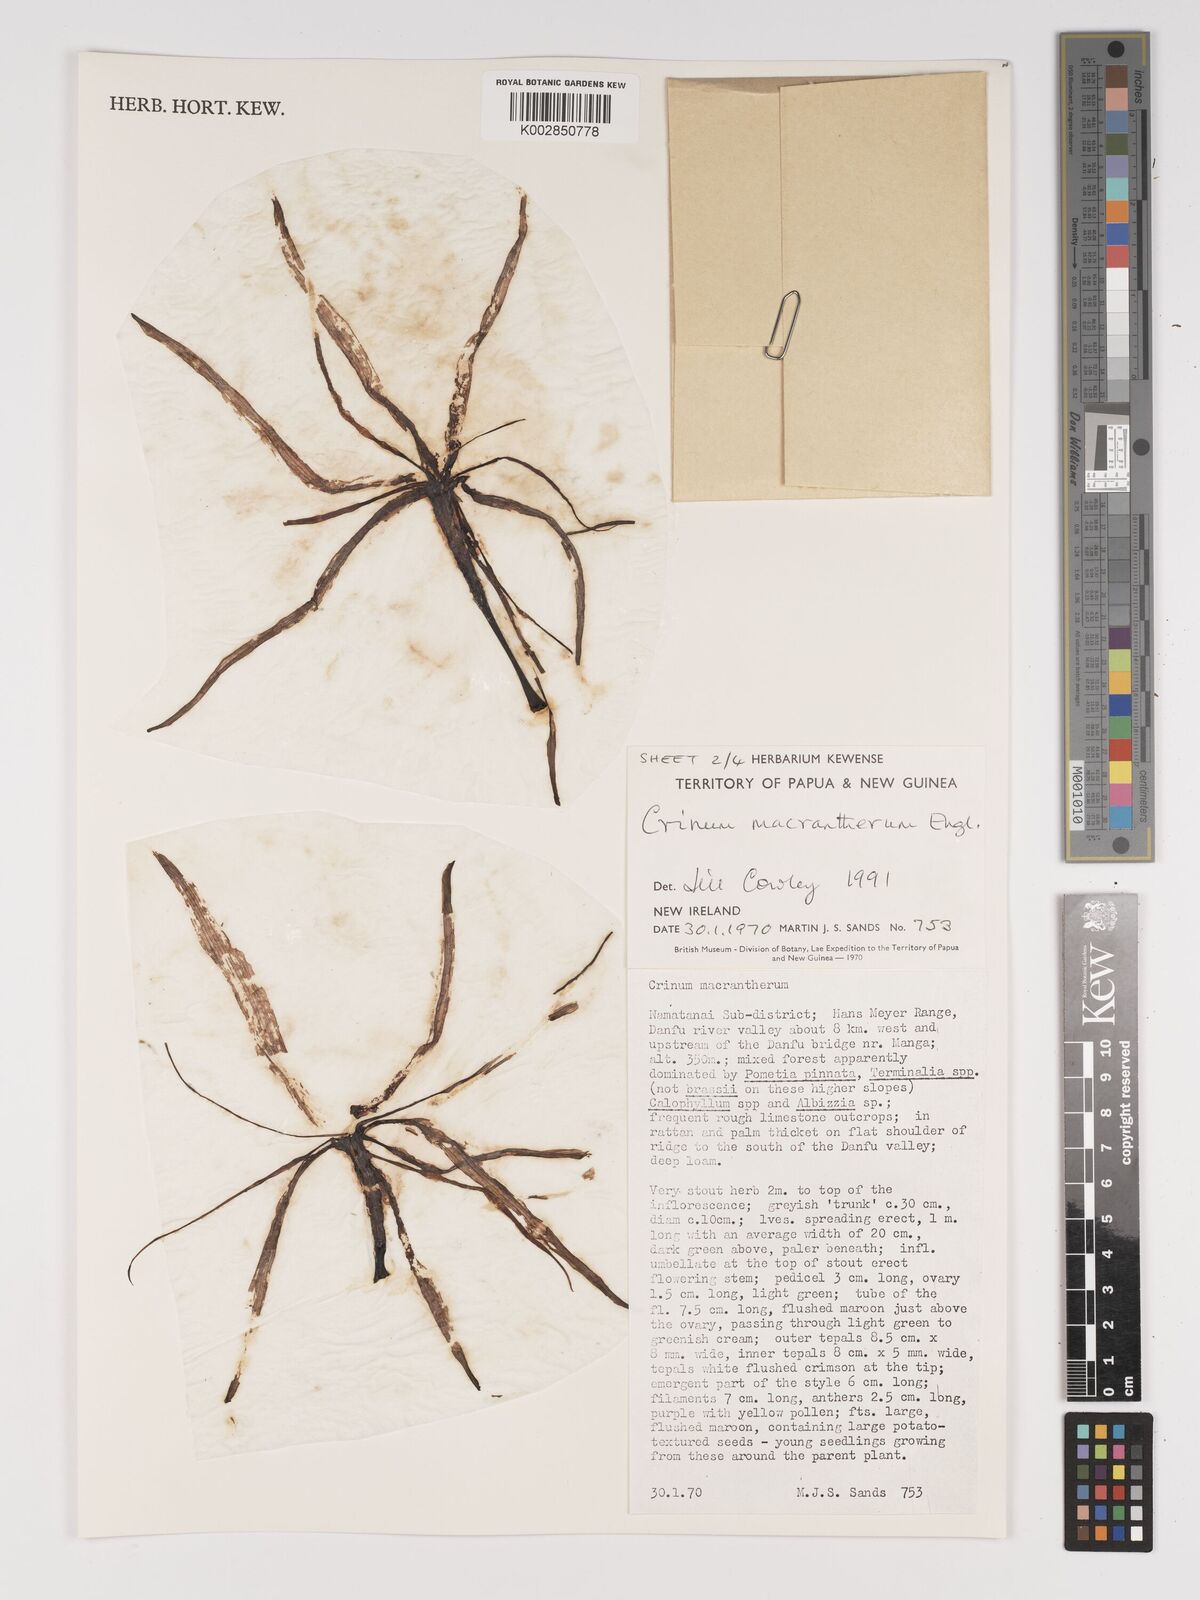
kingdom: Plantae
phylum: Tracheophyta
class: Liliopsida
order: Asparagales
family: Amaryllidaceae
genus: Crinum
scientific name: Crinum asiaticum
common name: Poisonbulb
